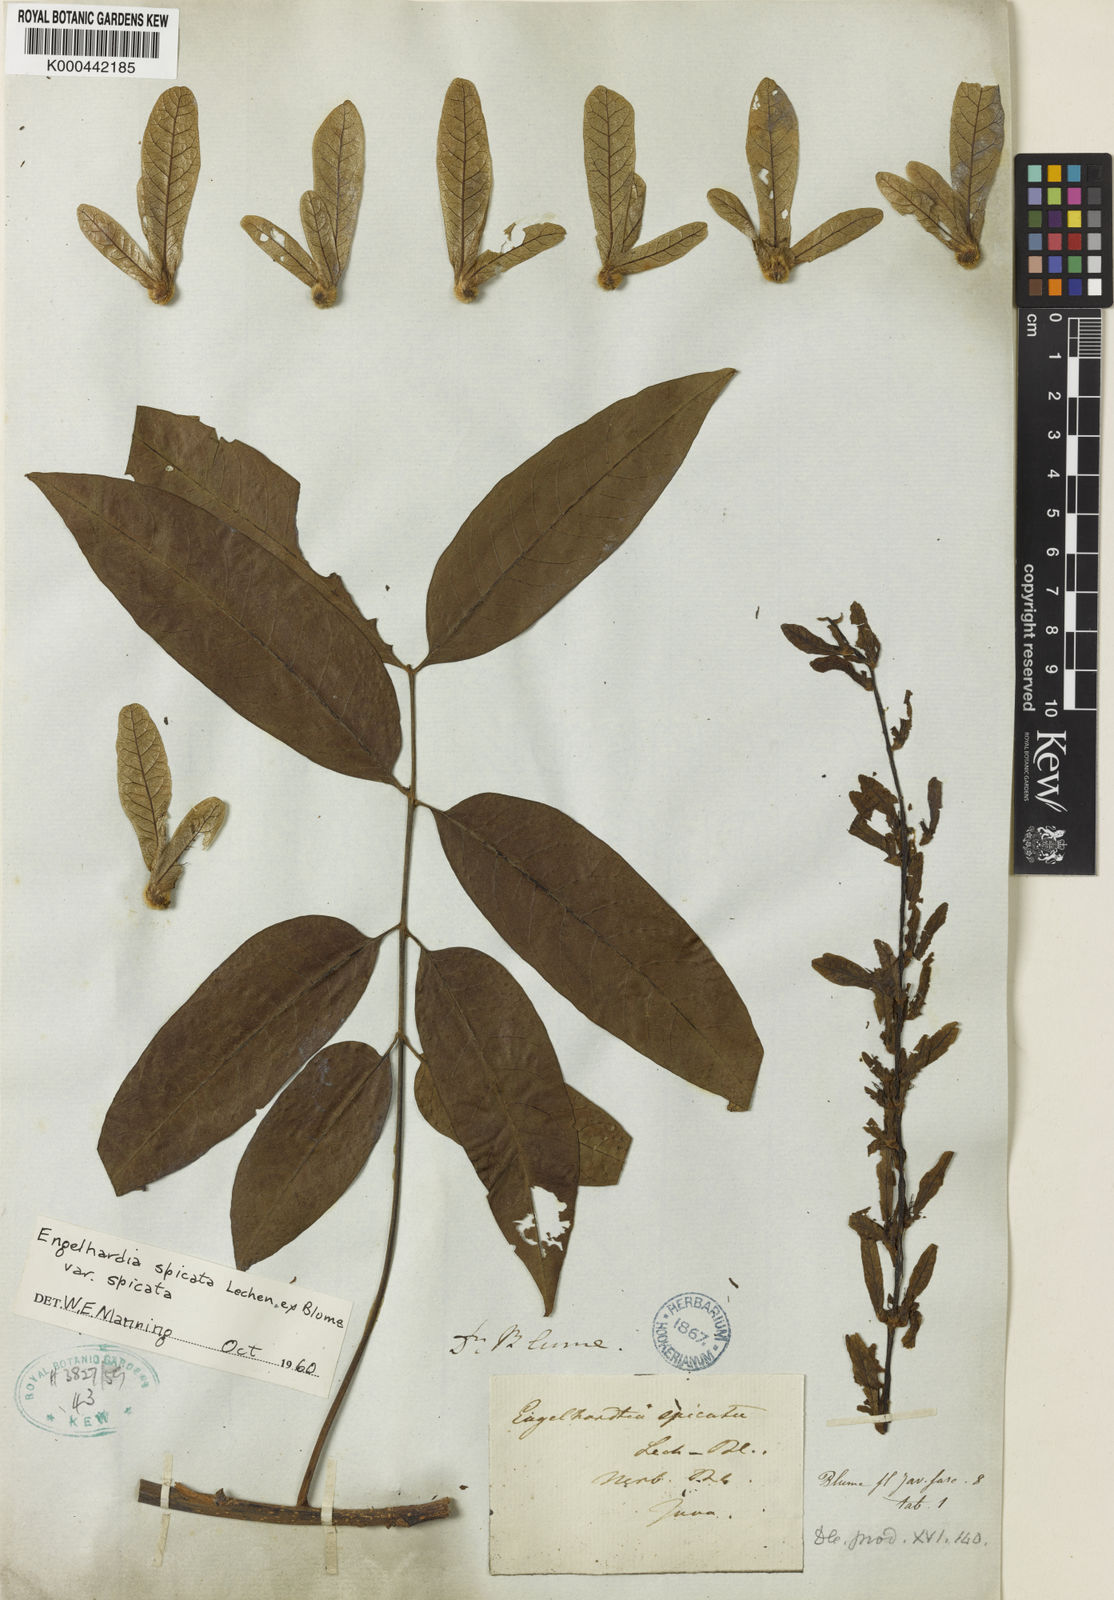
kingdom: Plantae
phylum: Tracheophyta
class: Magnoliopsida
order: Fagales
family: Juglandaceae
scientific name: Juglandaceae
